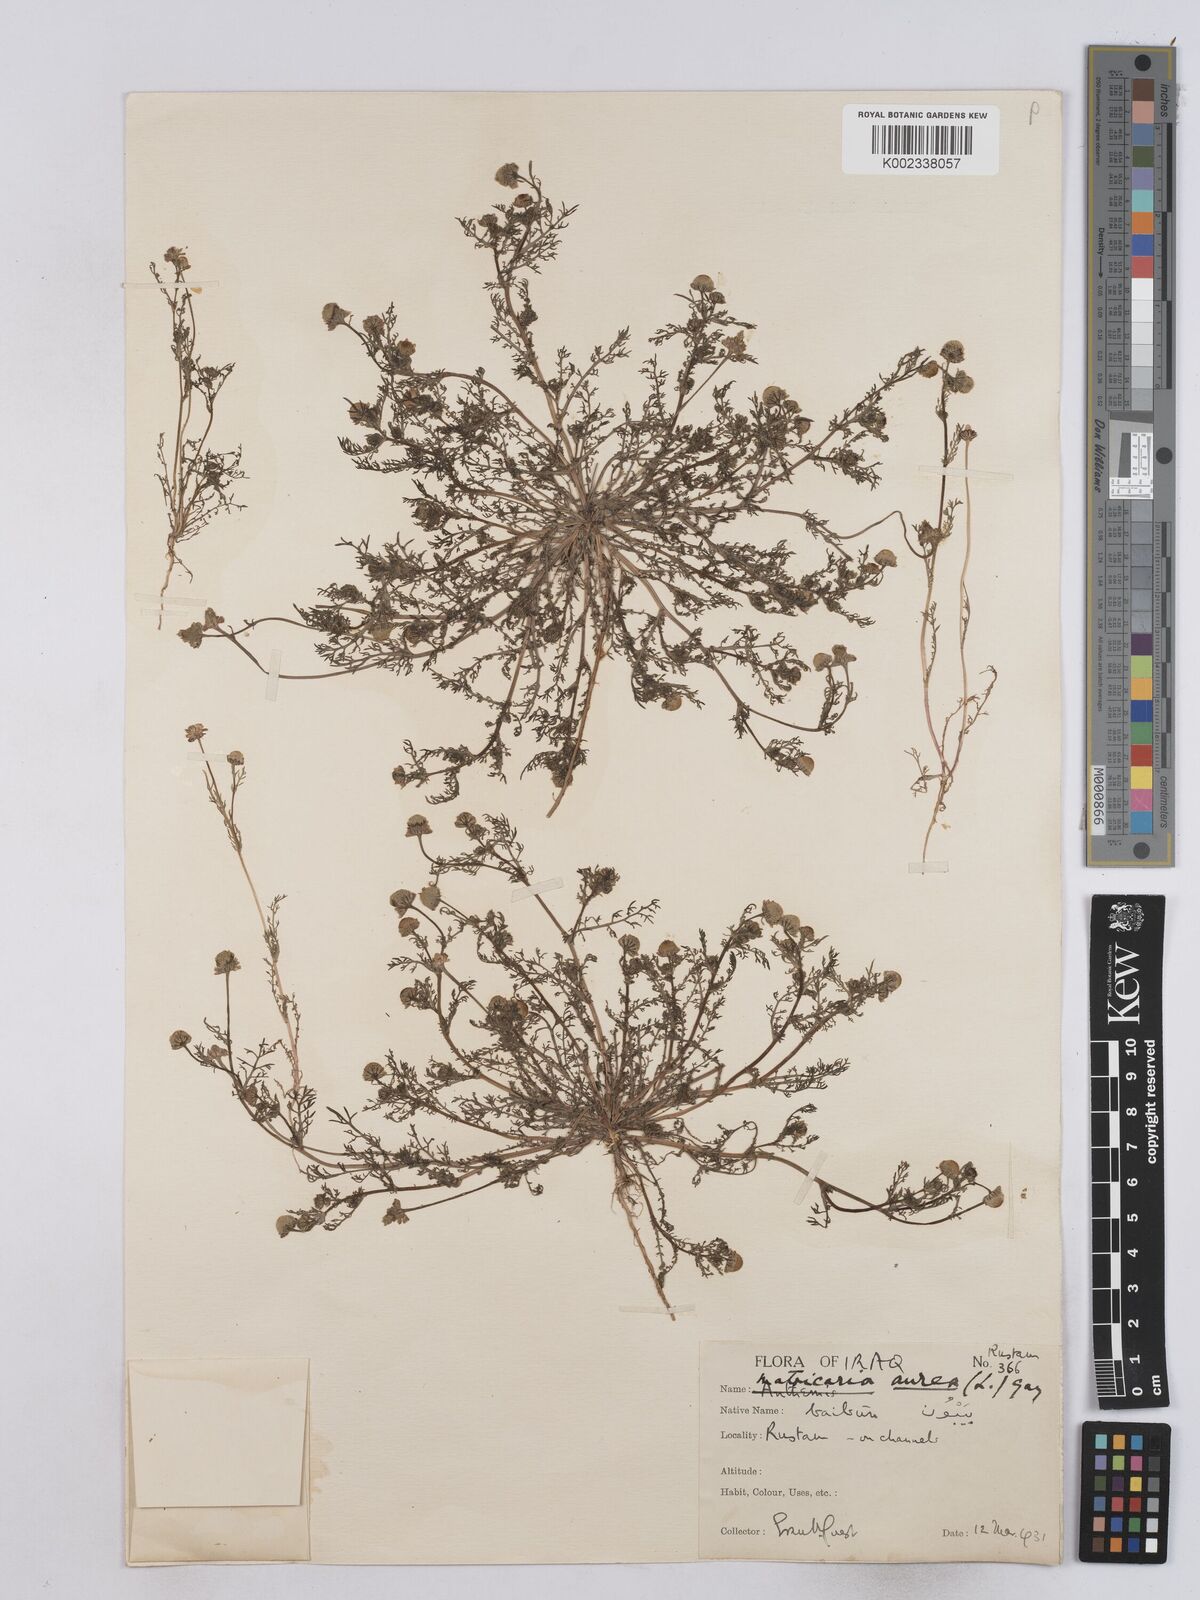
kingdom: Plantae
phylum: Tracheophyta
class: Magnoliopsida
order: Asterales
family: Asteraceae
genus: Matricaria
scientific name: Matricaria aurea
